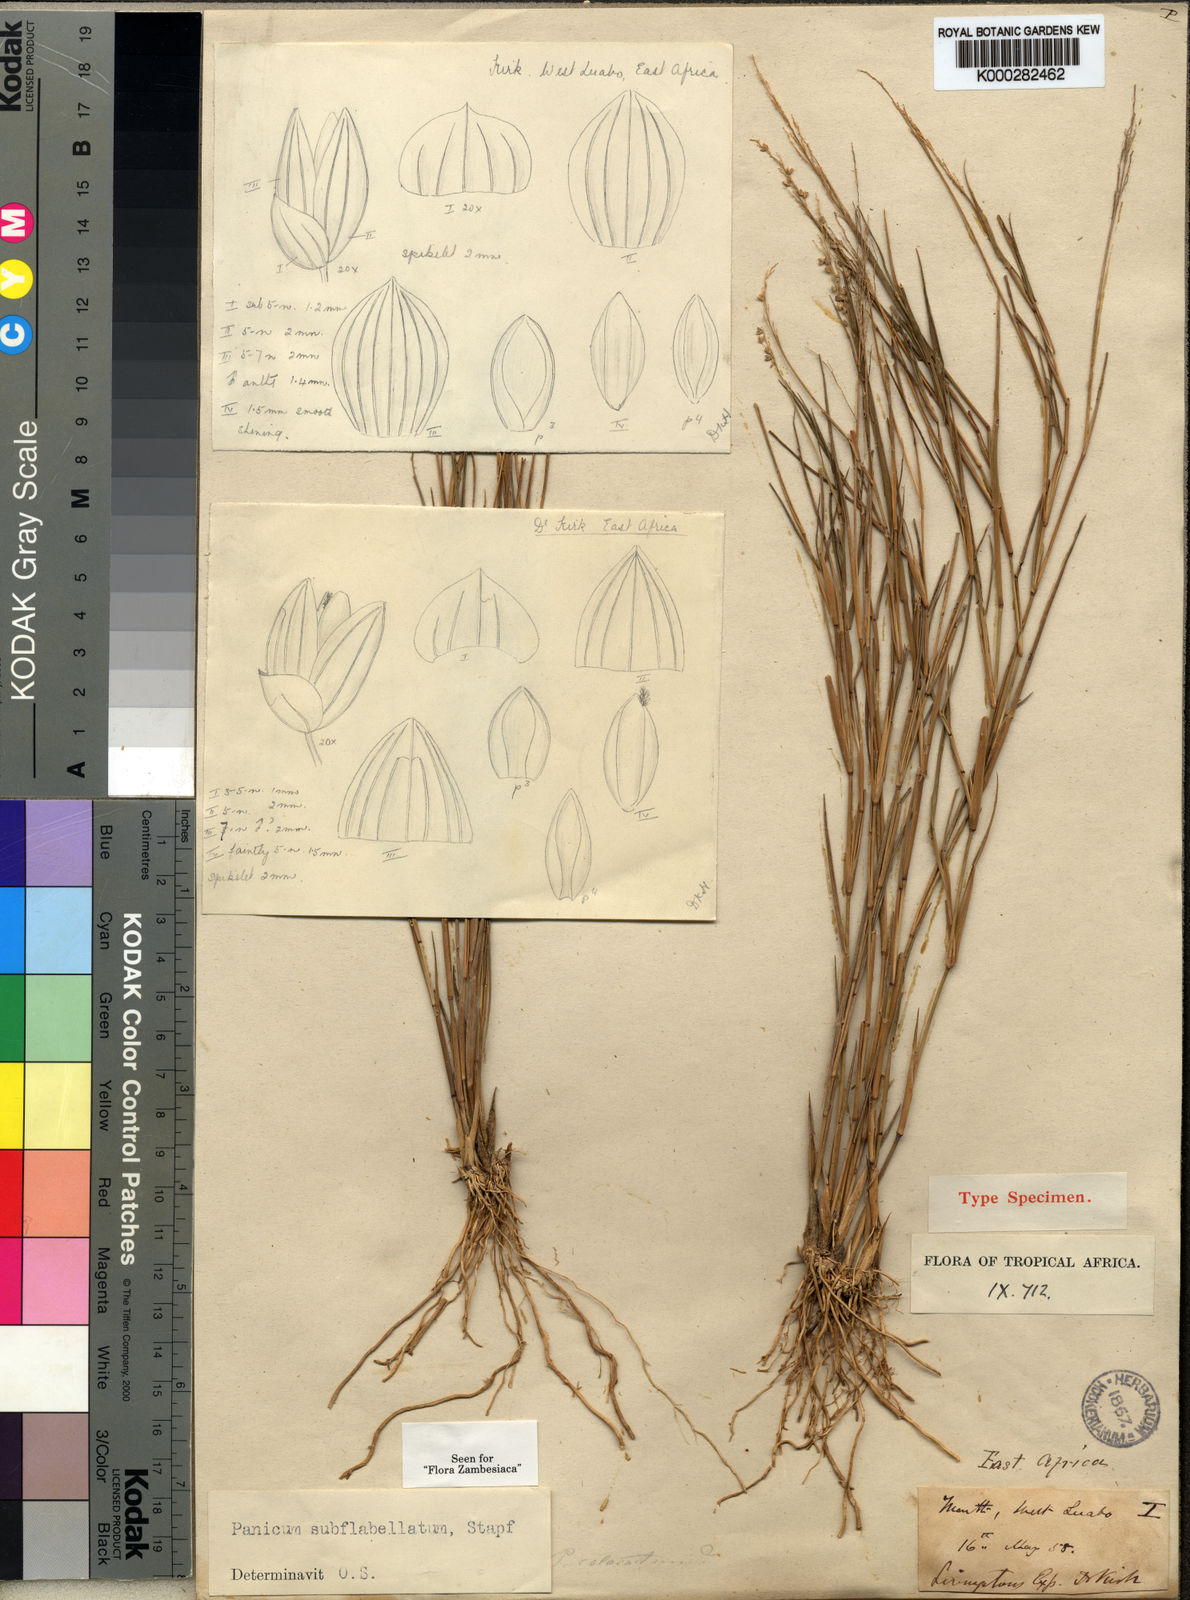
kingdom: Plantae
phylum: Tracheophyta
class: Liliopsida
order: Poales
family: Poaceae
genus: Panicum
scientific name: Panicum subflabellatum
